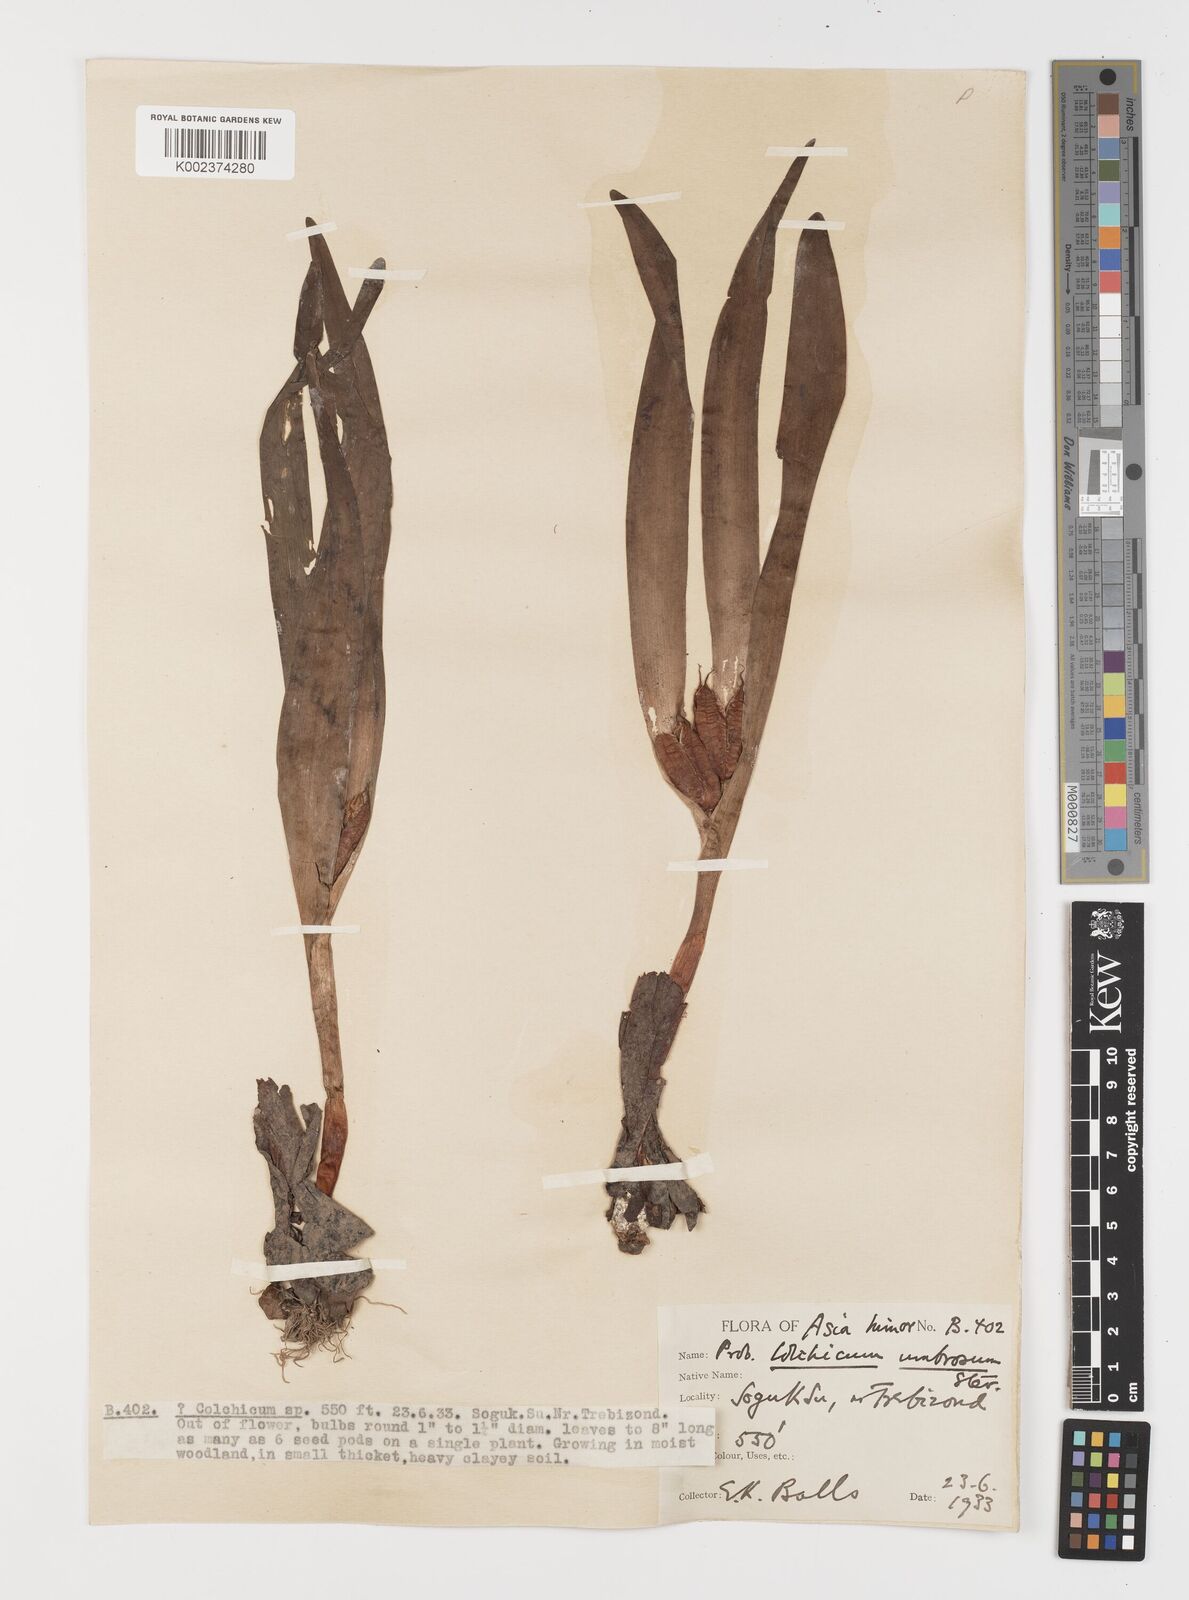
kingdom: Plantae
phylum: Tracheophyta
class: Liliopsida
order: Liliales
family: Colchicaceae
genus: Colchicum
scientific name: Colchicum
